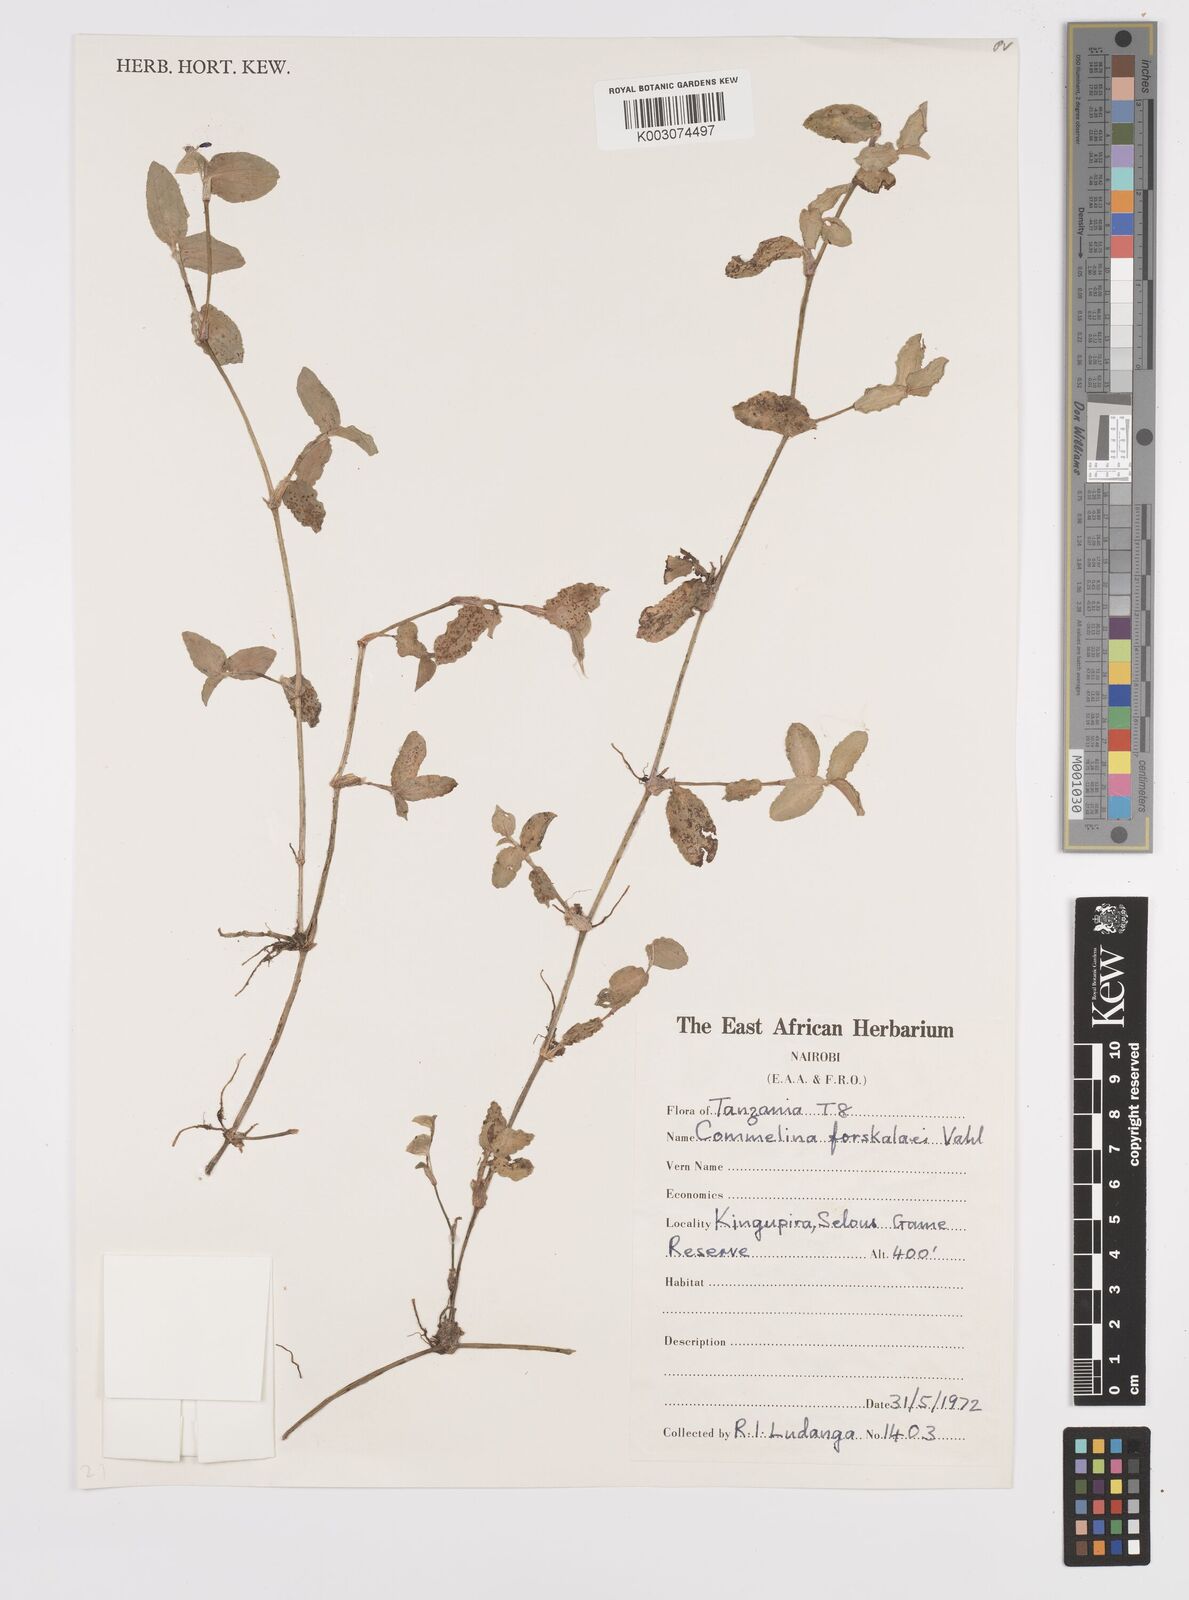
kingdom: Plantae
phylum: Tracheophyta
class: Liliopsida
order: Commelinales
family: Commelinaceae
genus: Commelina
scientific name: Commelina
